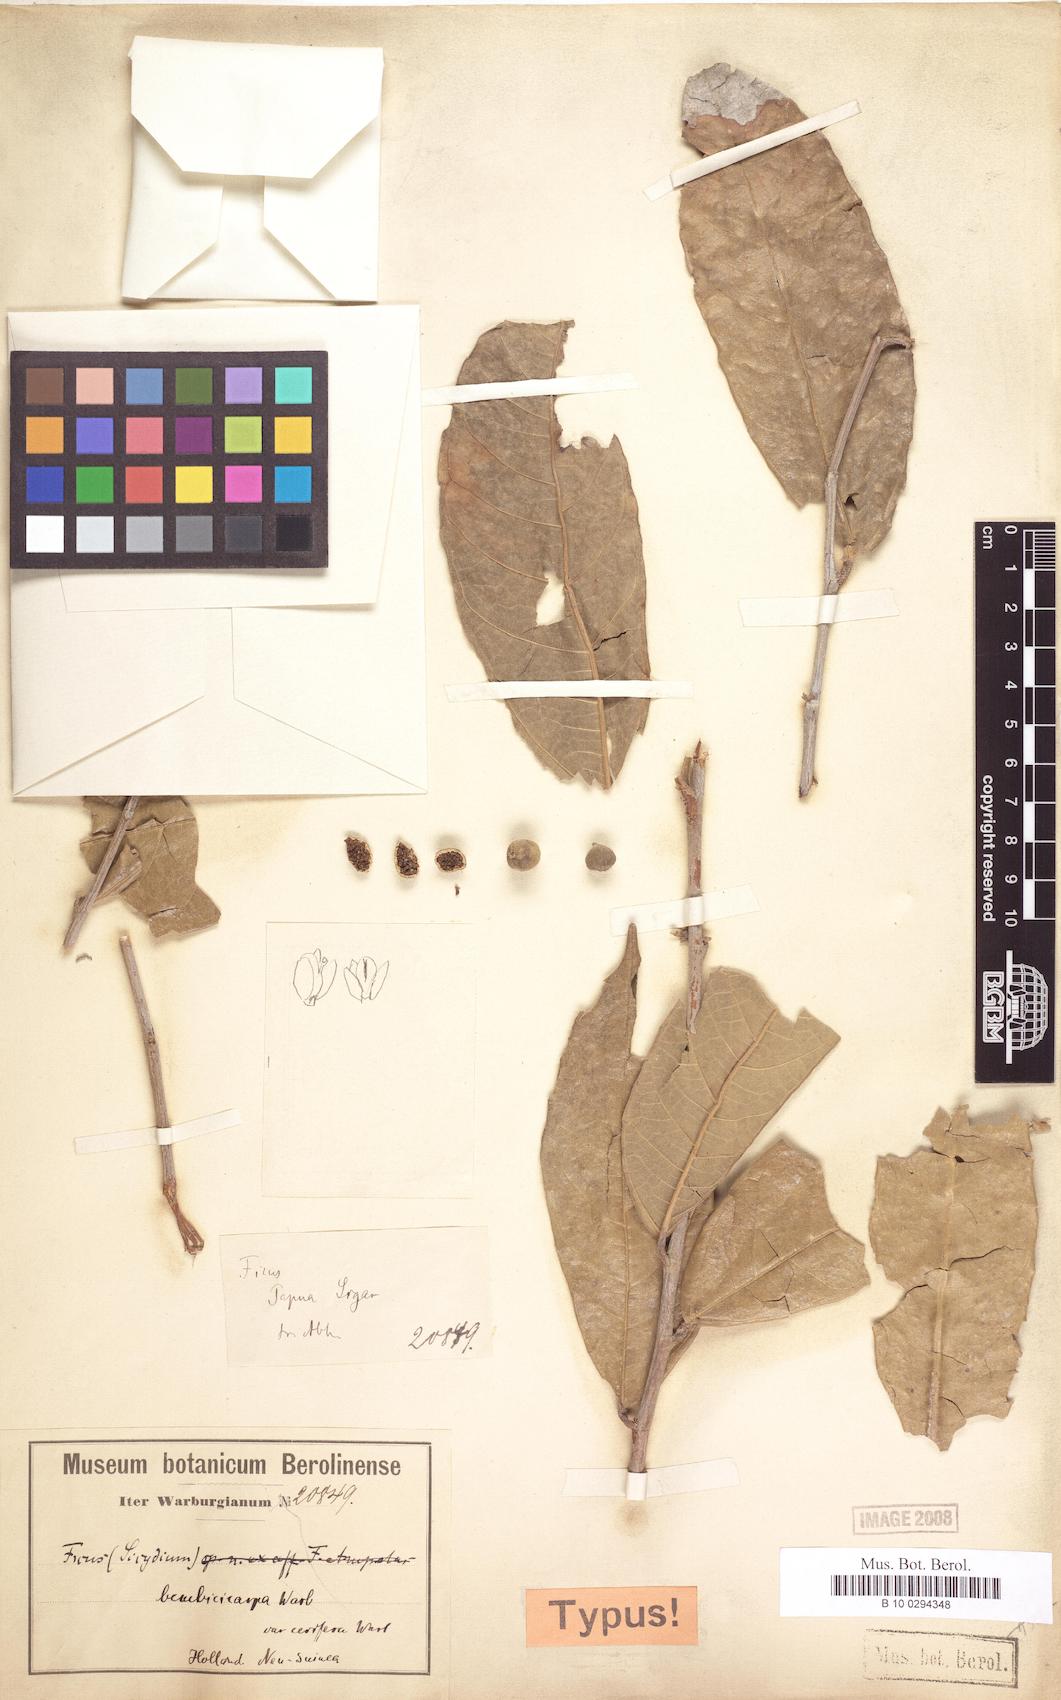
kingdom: Plantae
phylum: Tracheophyta
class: Magnoliopsida
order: Rosales
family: Moraceae
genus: Ficus
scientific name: Ficus umbonata
